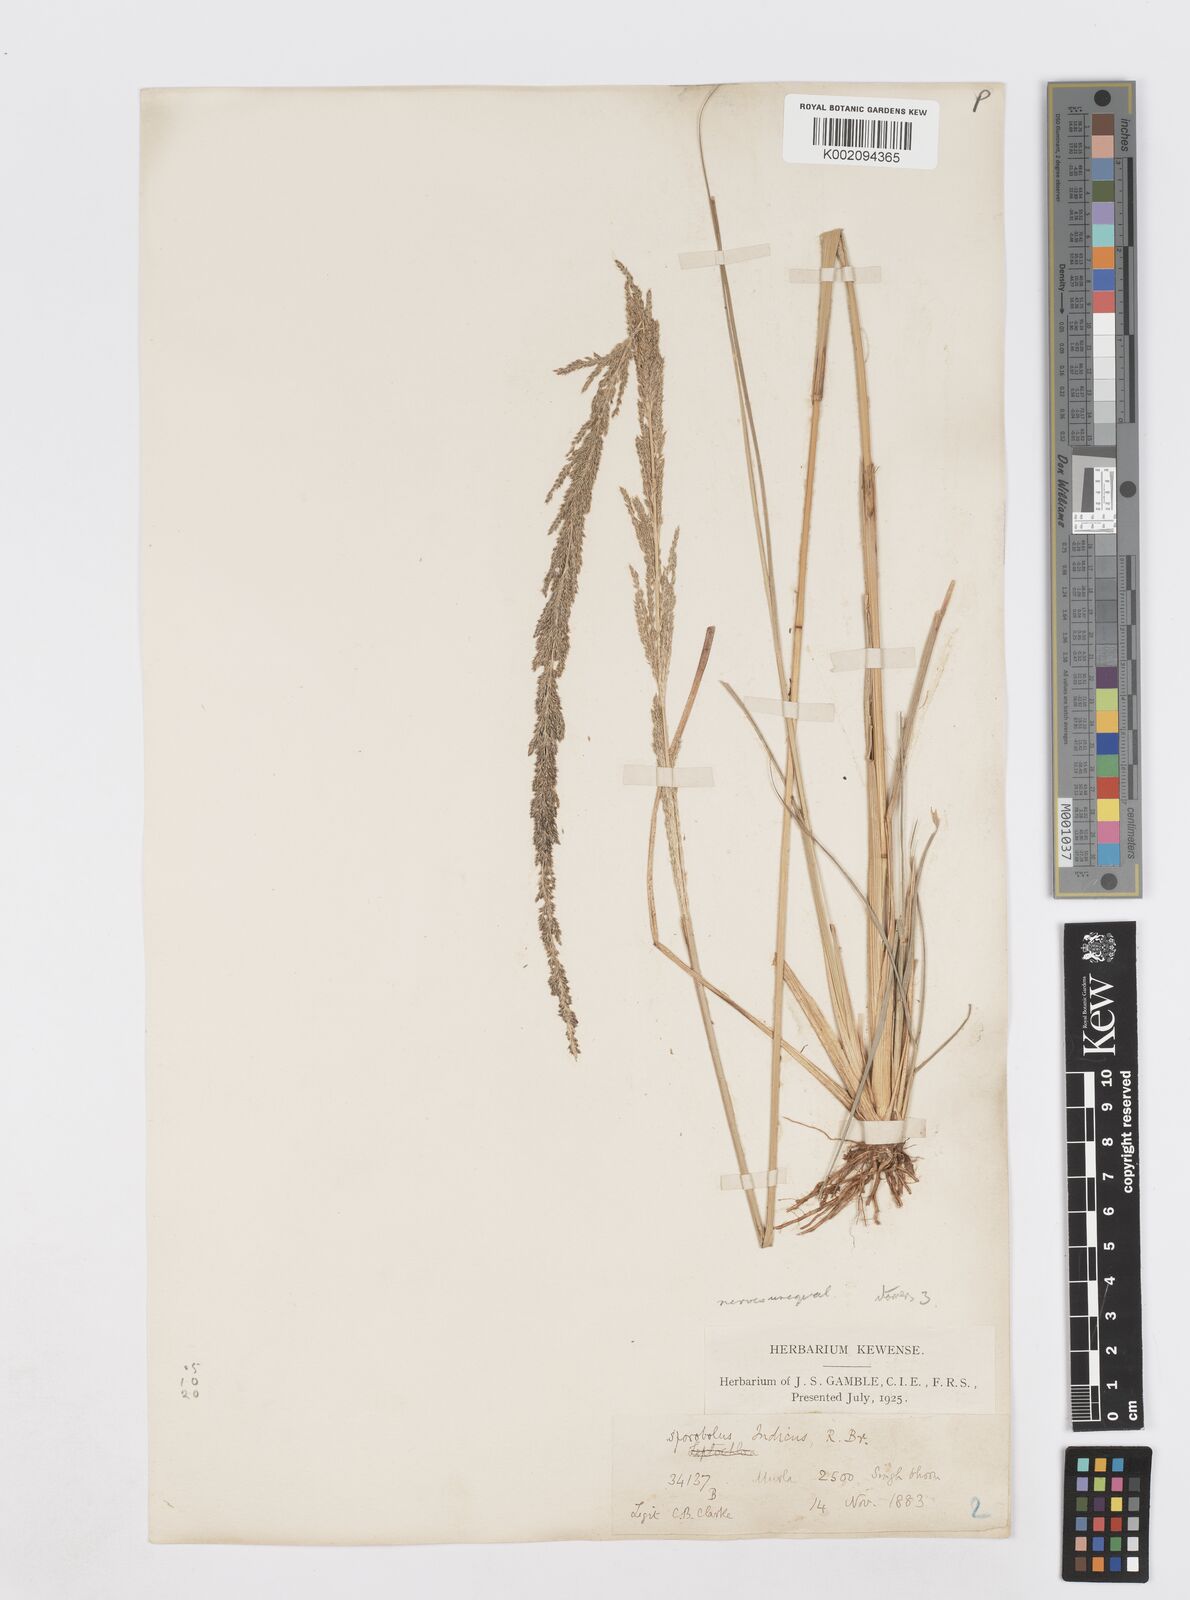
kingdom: Plantae
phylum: Tracheophyta
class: Liliopsida
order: Poales
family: Poaceae
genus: Sporobolus
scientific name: Sporobolus fertilis
